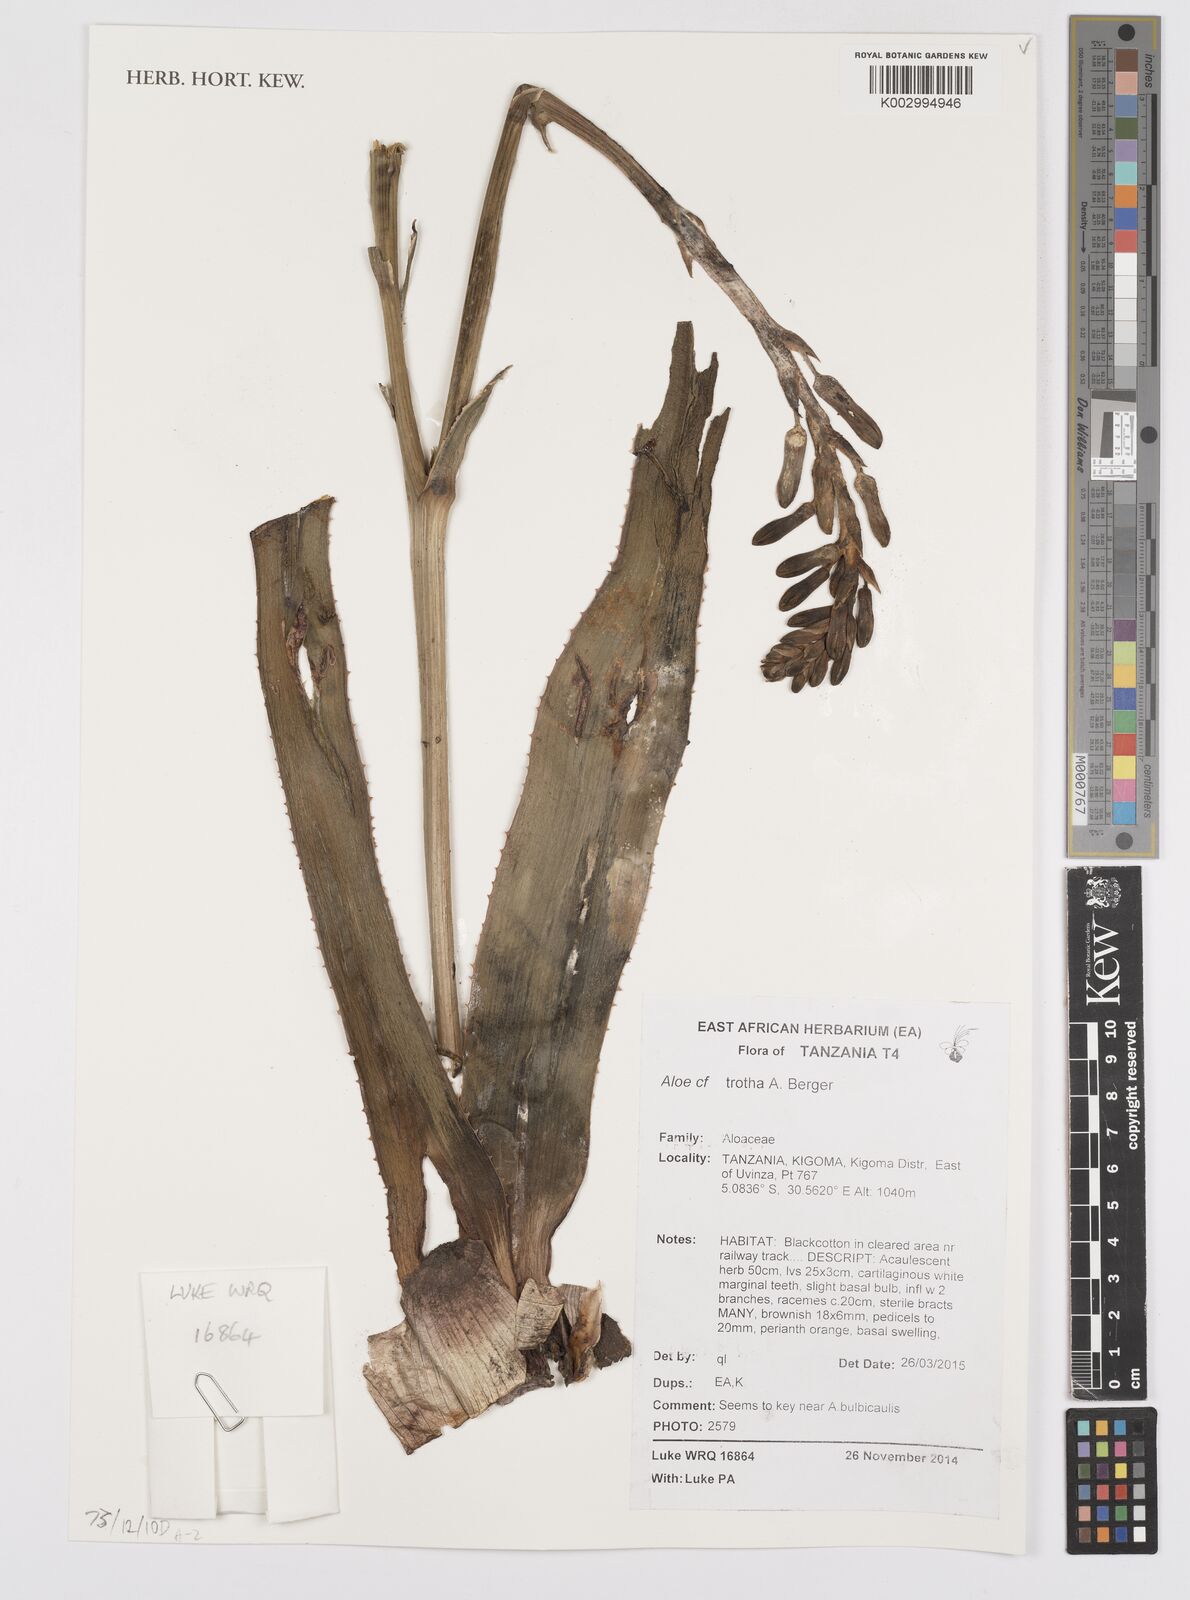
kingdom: Plantae
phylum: Tracheophyta
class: Liliopsida
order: Asparagales
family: Asphodelaceae
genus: Aloe
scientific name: Aloe trothae
